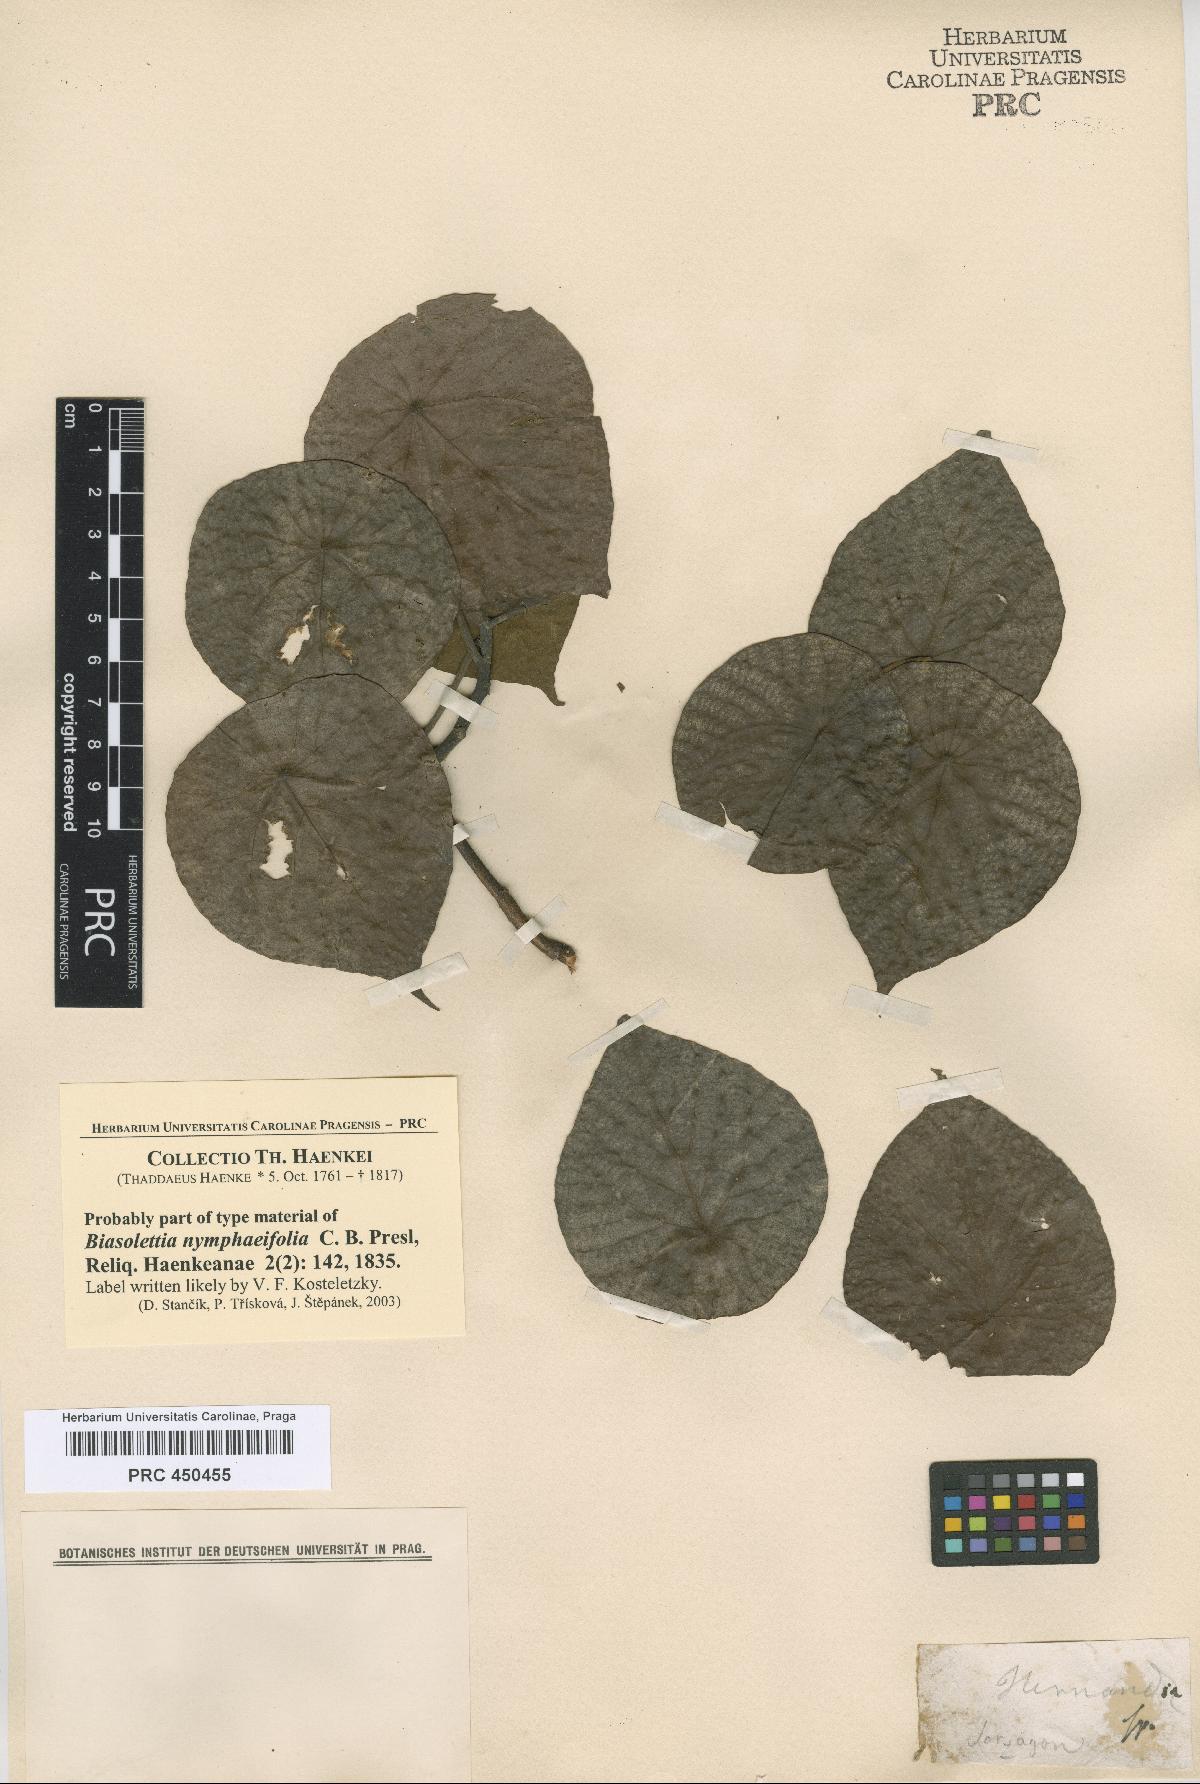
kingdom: Plantae
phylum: Tracheophyta
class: Magnoliopsida
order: Laurales
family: Hernandiaceae
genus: Hernandia
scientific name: Hernandia nymphaeifolia
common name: Sea hearse
